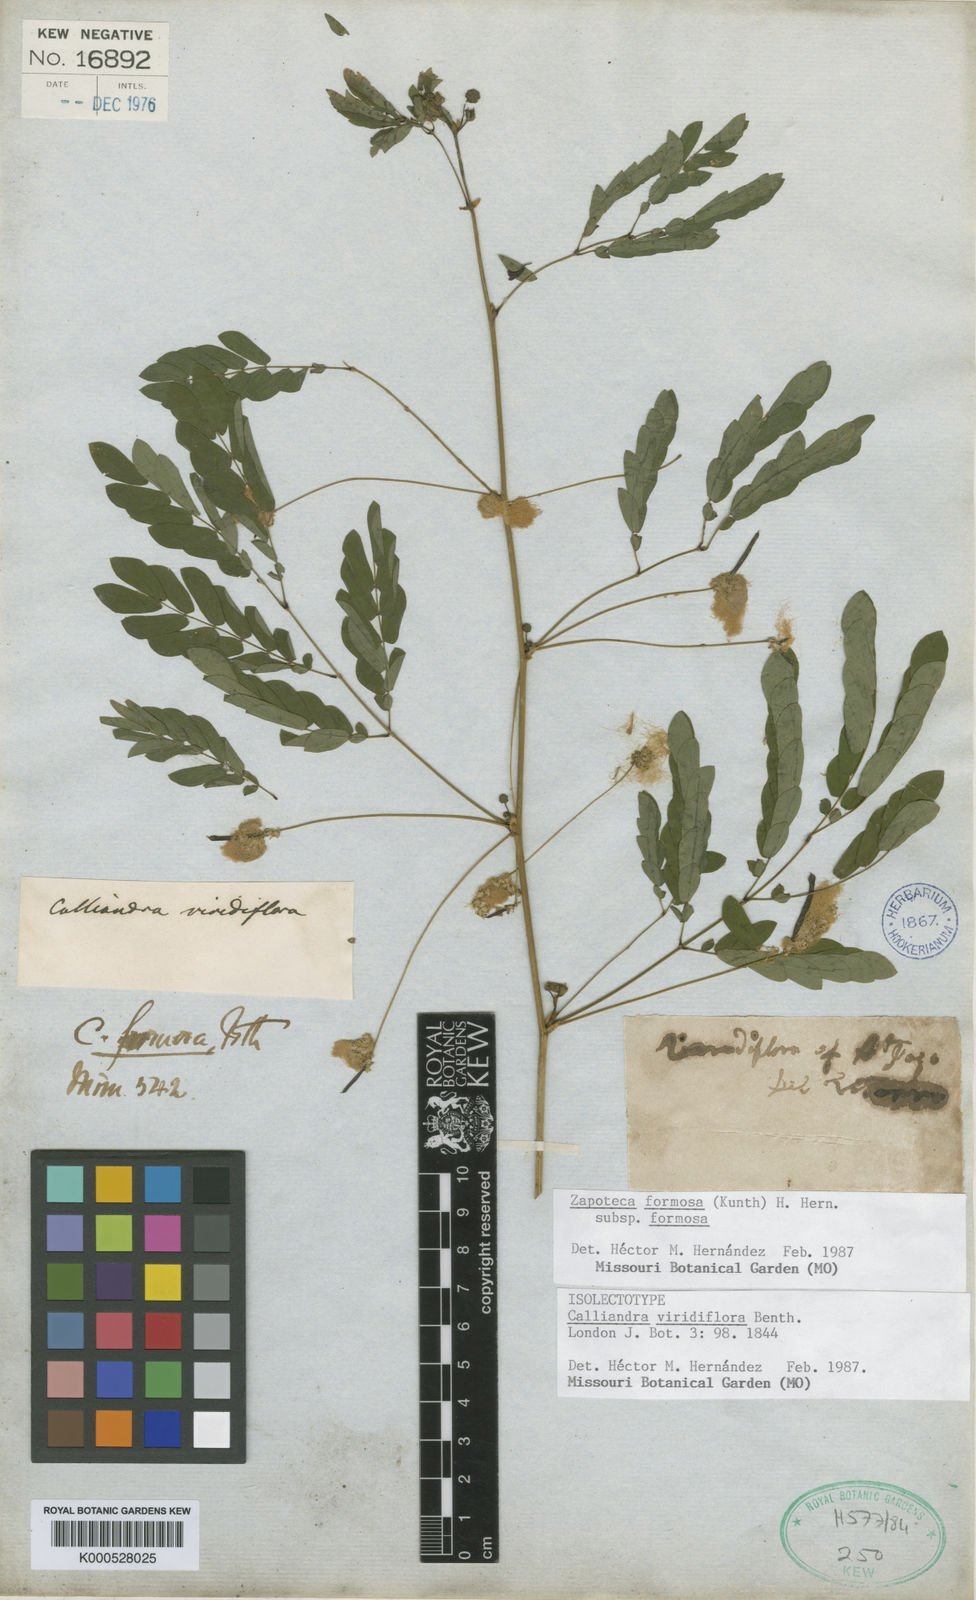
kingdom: Plantae
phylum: Tracheophyta
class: Magnoliopsida
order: Fabales
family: Fabaceae
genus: Zapoteca
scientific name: Zapoteca formosa
